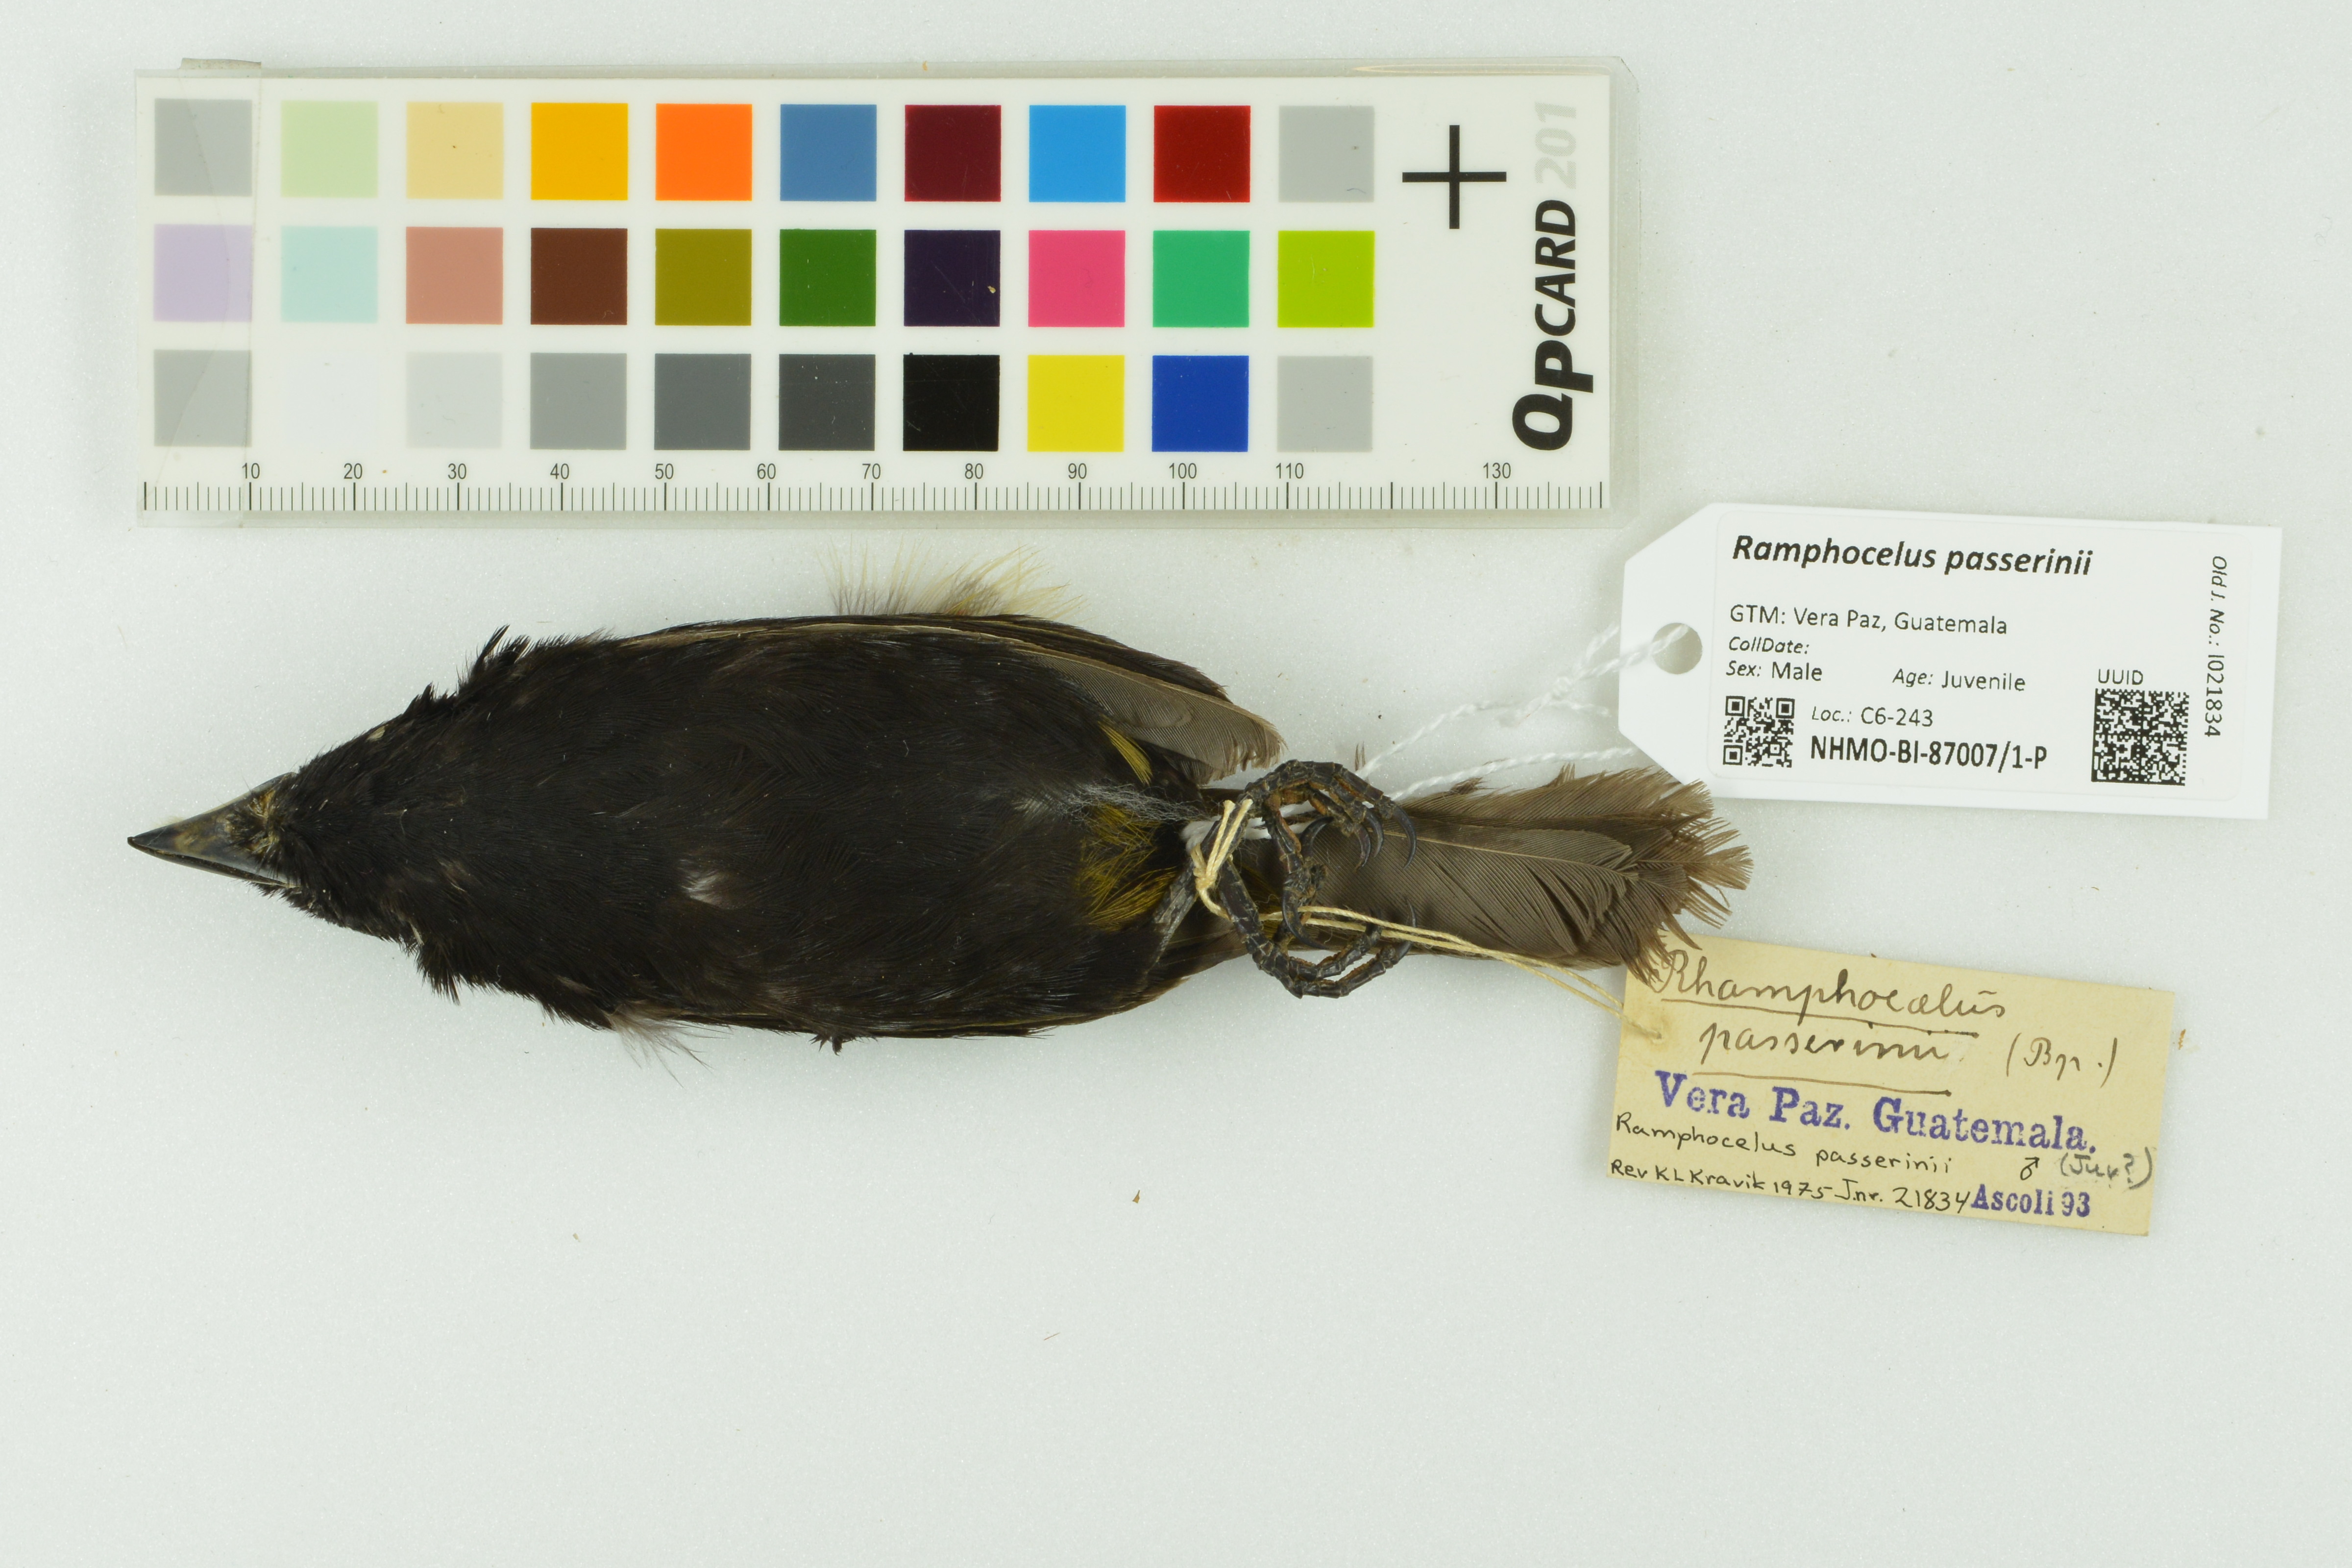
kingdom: Animalia
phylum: Chordata
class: Aves
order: Passeriformes
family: Thraupidae
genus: Ramphocelus
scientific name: Ramphocelus passerinii
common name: Passerini's tanager
